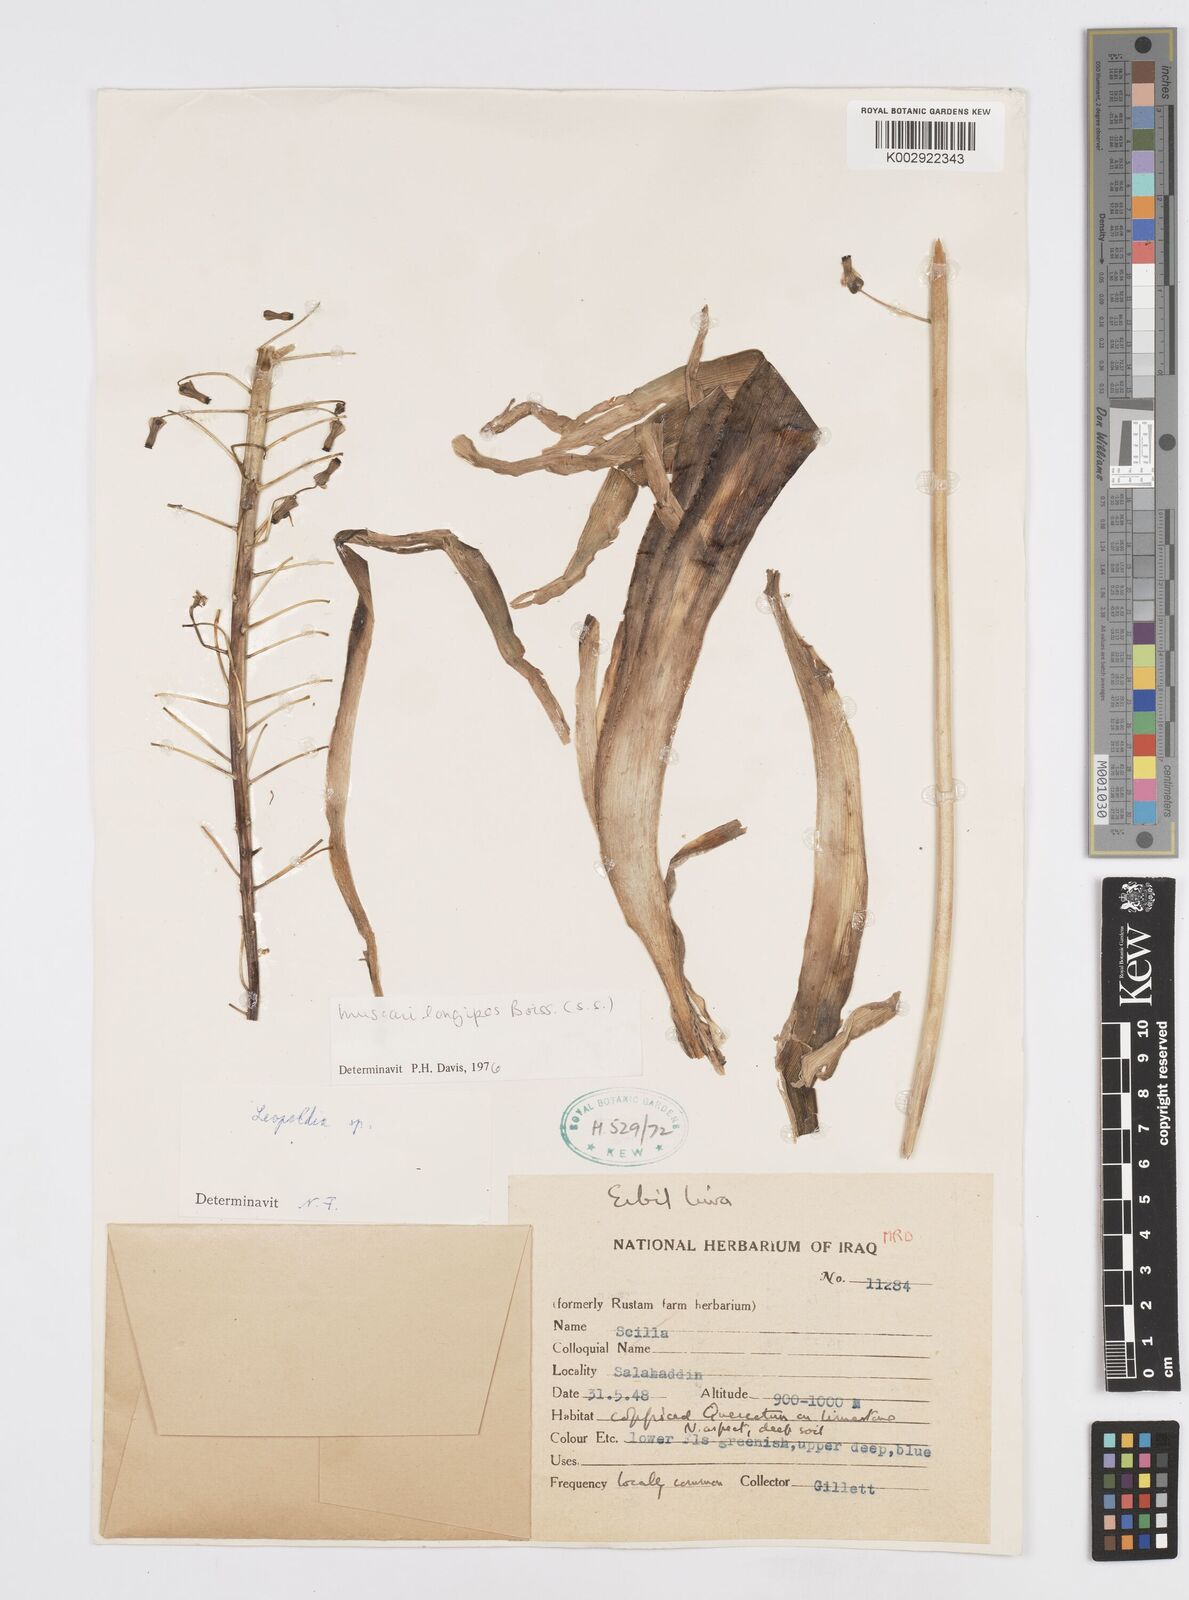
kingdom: Plantae
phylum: Tracheophyta
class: Liliopsida
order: Asparagales
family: Asparagaceae
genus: Muscari
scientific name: Muscari longipes
